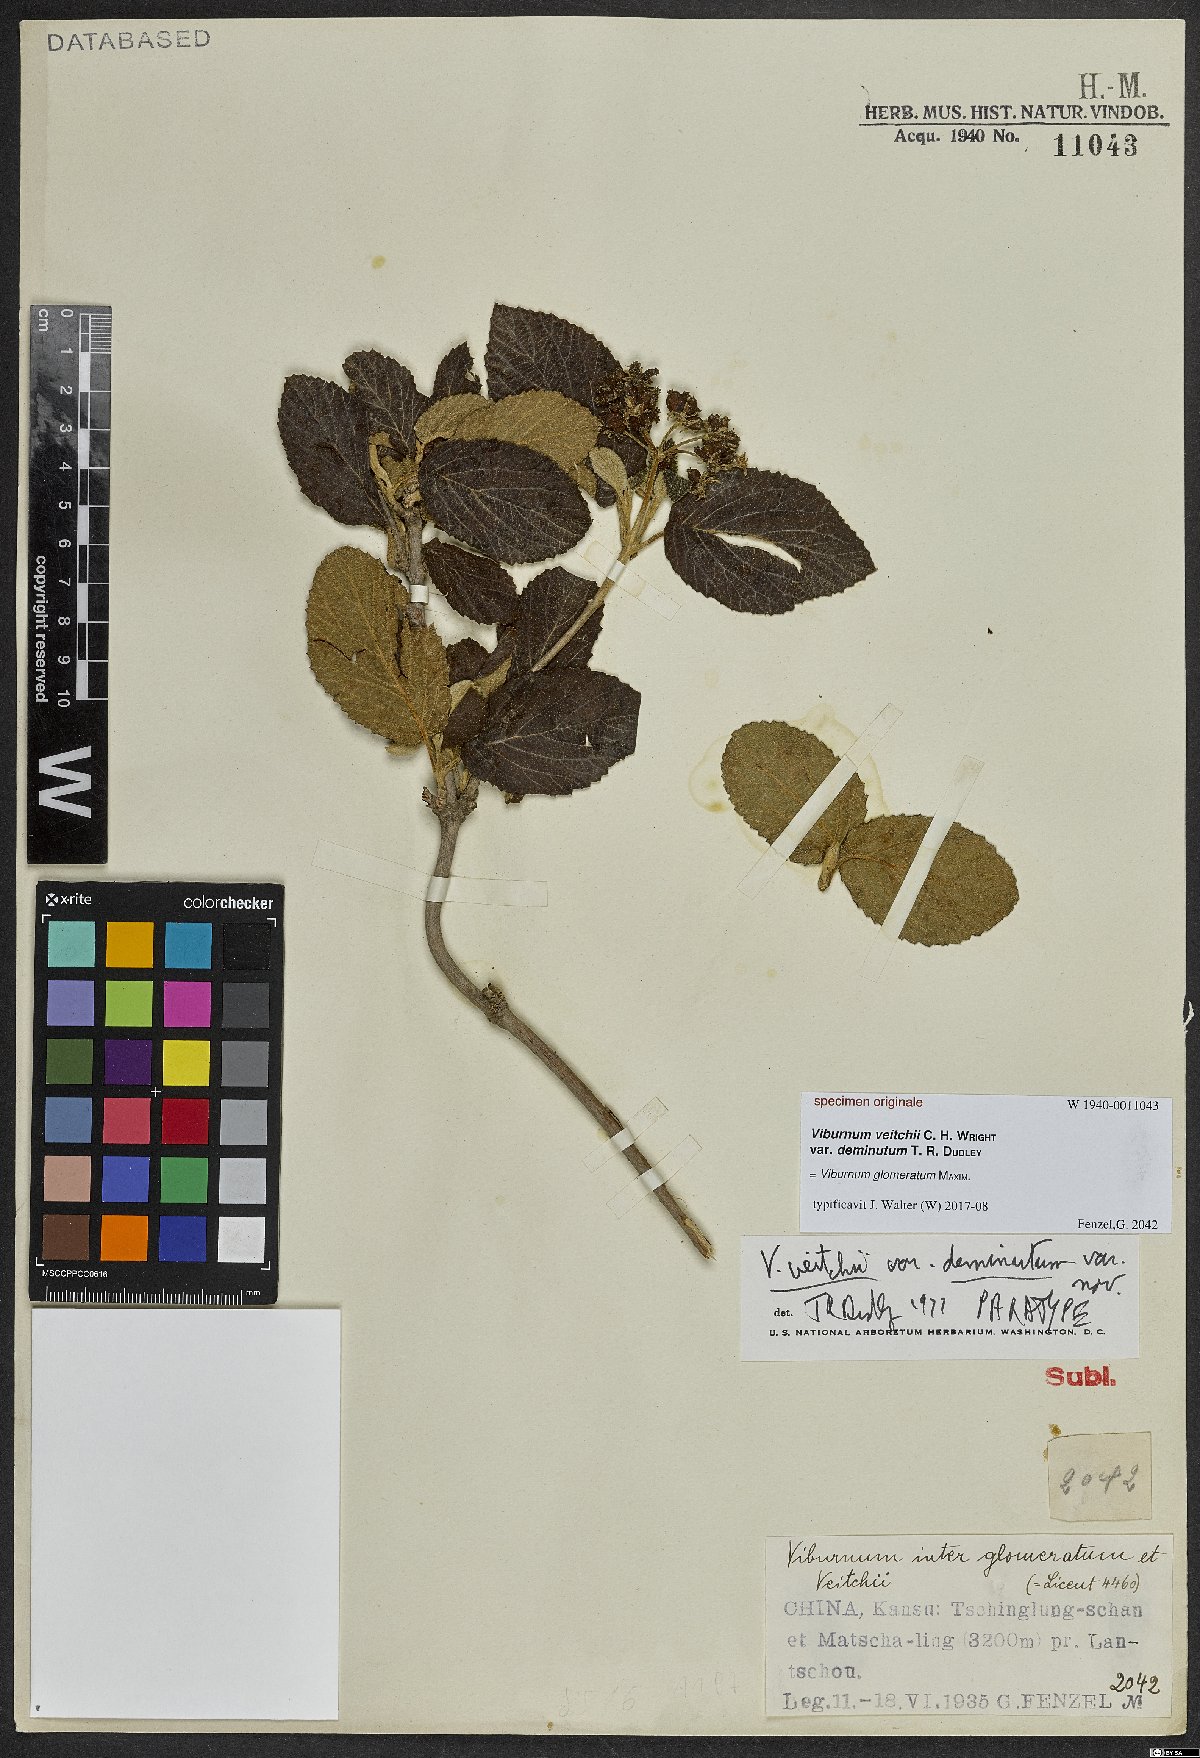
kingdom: Plantae
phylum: Tracheophyta
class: Magnoliopsida
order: Dipsacales
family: Viburnaceae
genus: Viburnum
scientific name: Viburnum glomeratum
